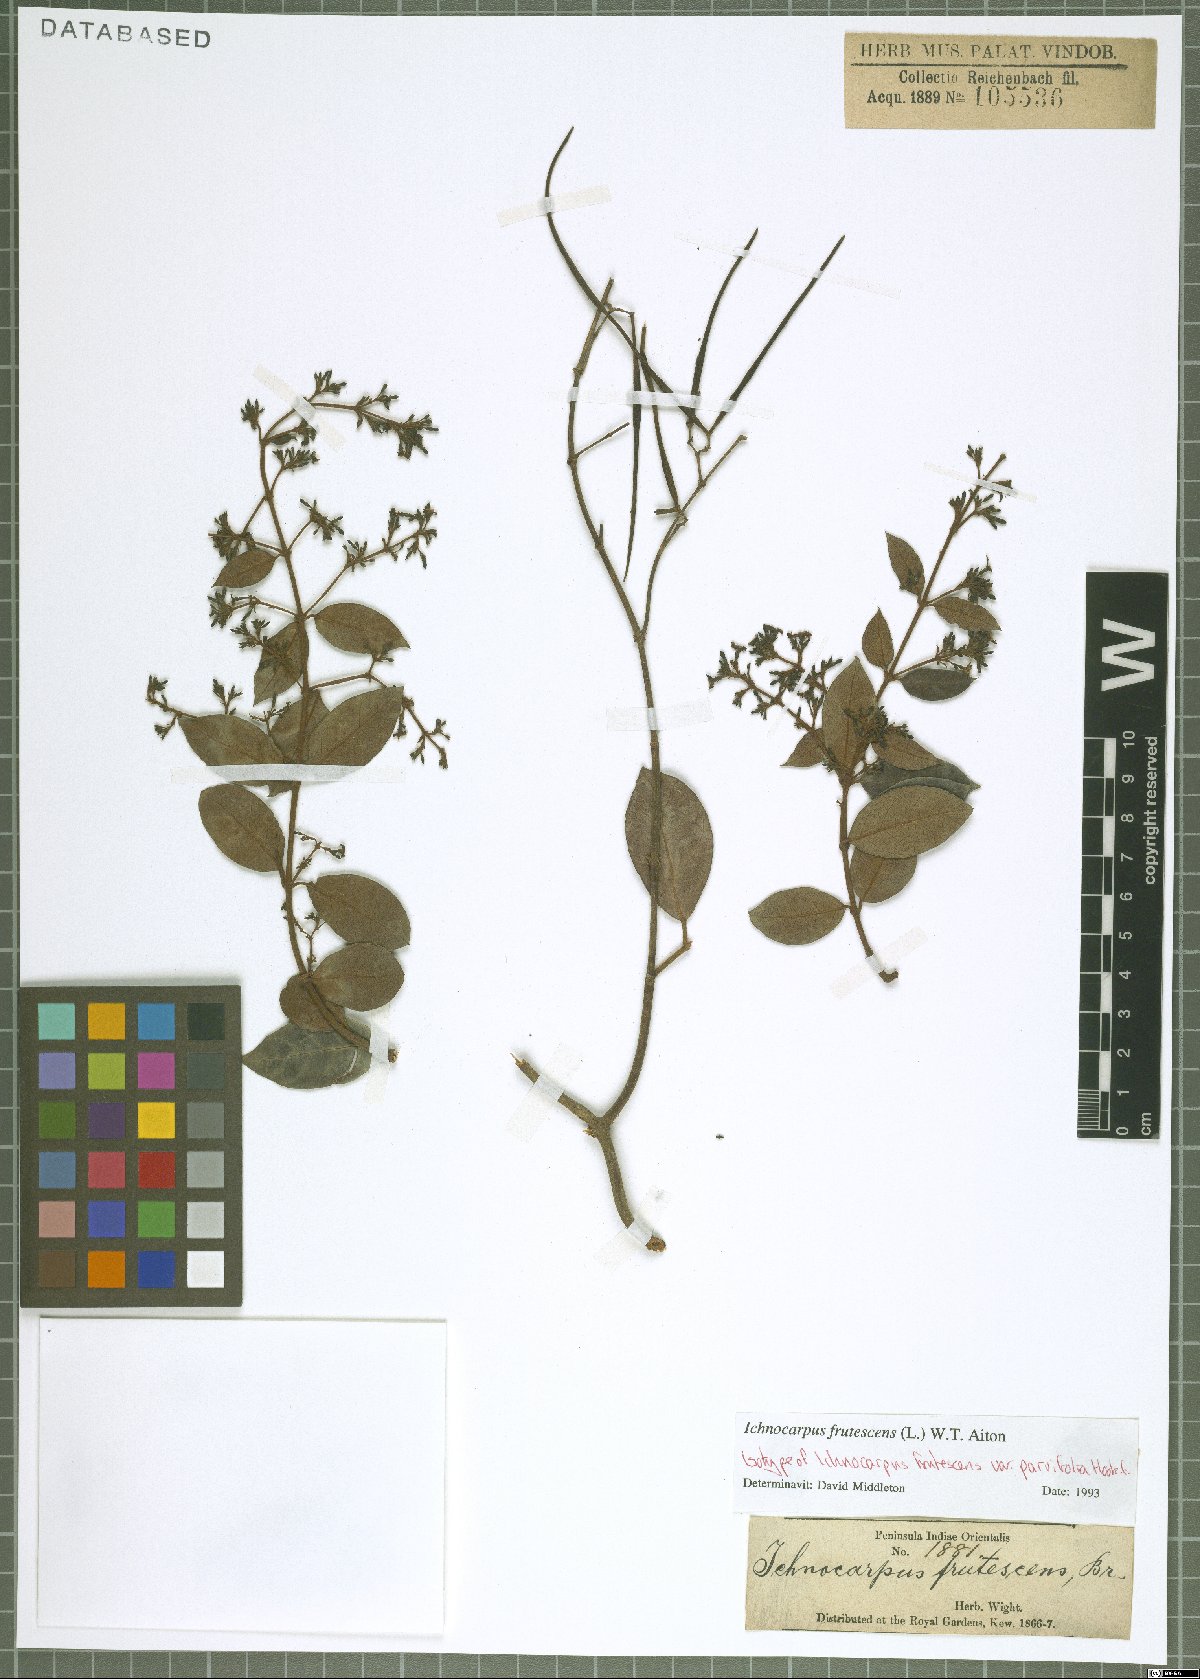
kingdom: Plantae
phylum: Tracheophyta
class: Magnoliopsida
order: Gentianales
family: Apocynaceae
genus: Ichnocarpus
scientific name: Ichnocarpus frutescens
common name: Ichnocarpus
